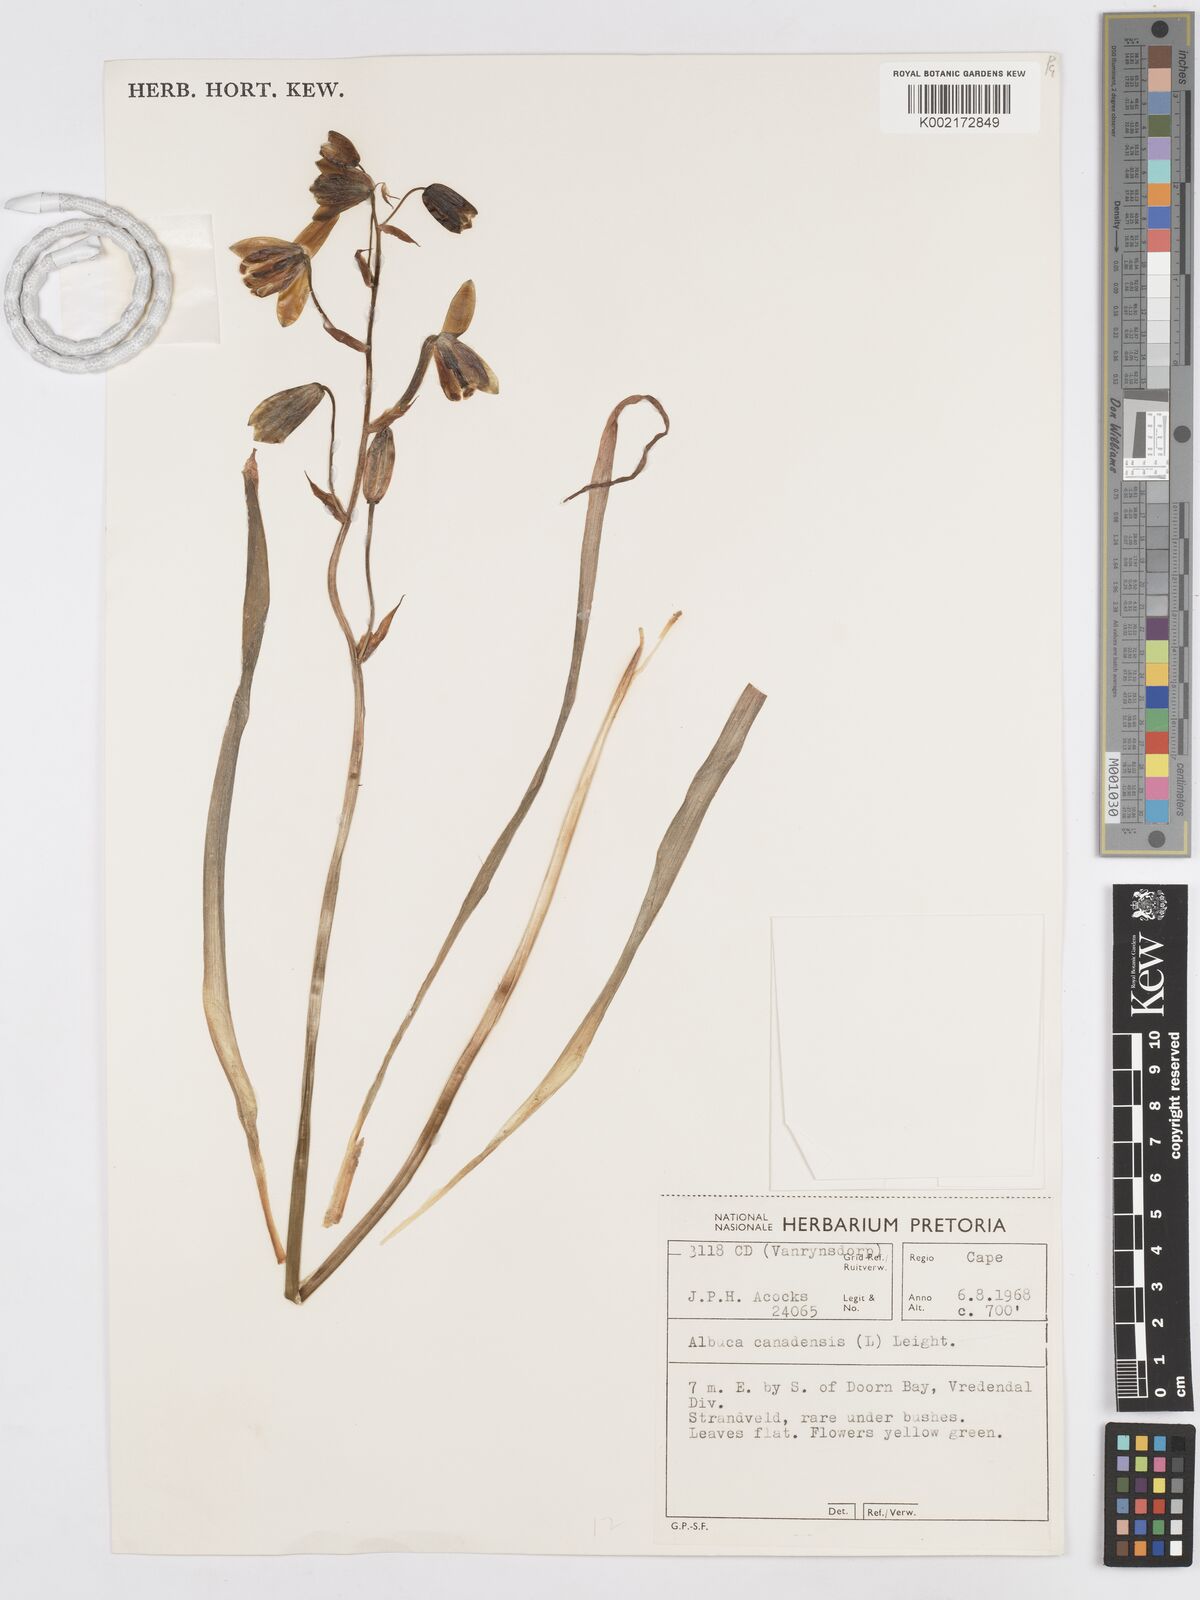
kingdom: Plantae
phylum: Tracheophyta
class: Liliopsida
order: Asparagales
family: Asparagaceae
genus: Albuca
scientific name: Albuca canadensis
